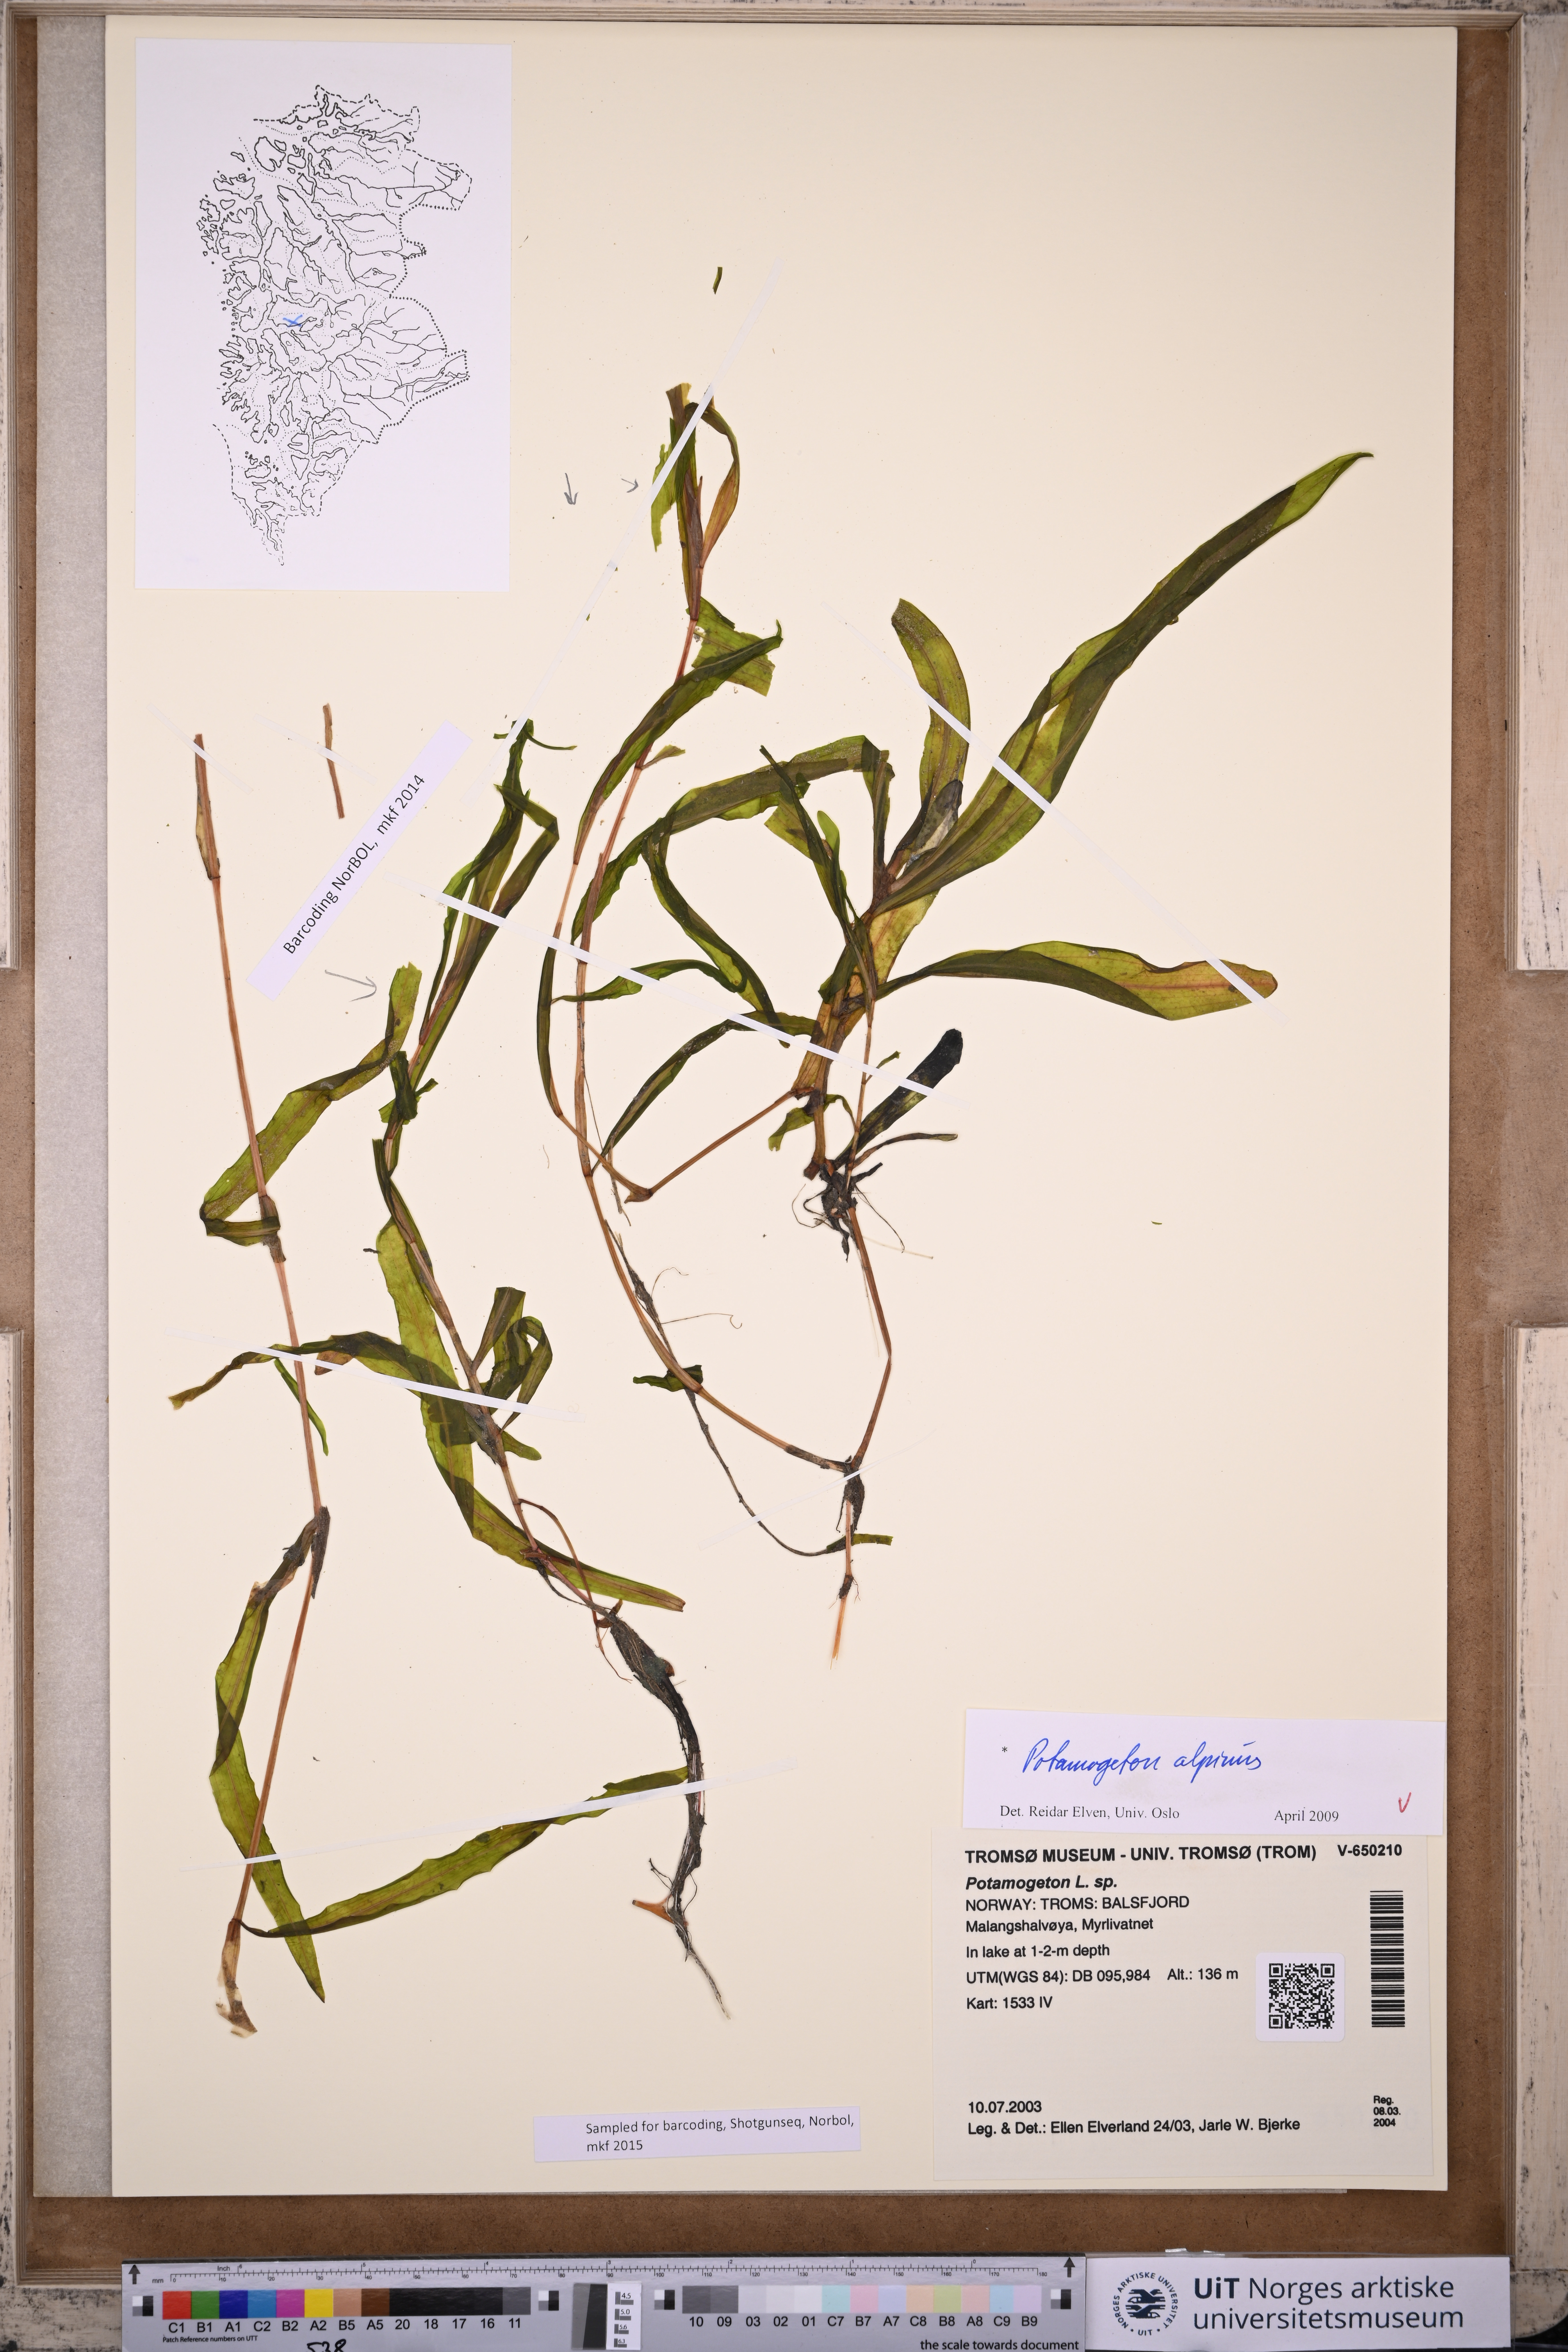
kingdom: Plantae
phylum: Tracheophyta
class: Liliopsida
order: Alismatales
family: Potamogetonaceae
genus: Potamogeton
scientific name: Potamogeton alpinus
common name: Red pondweed
